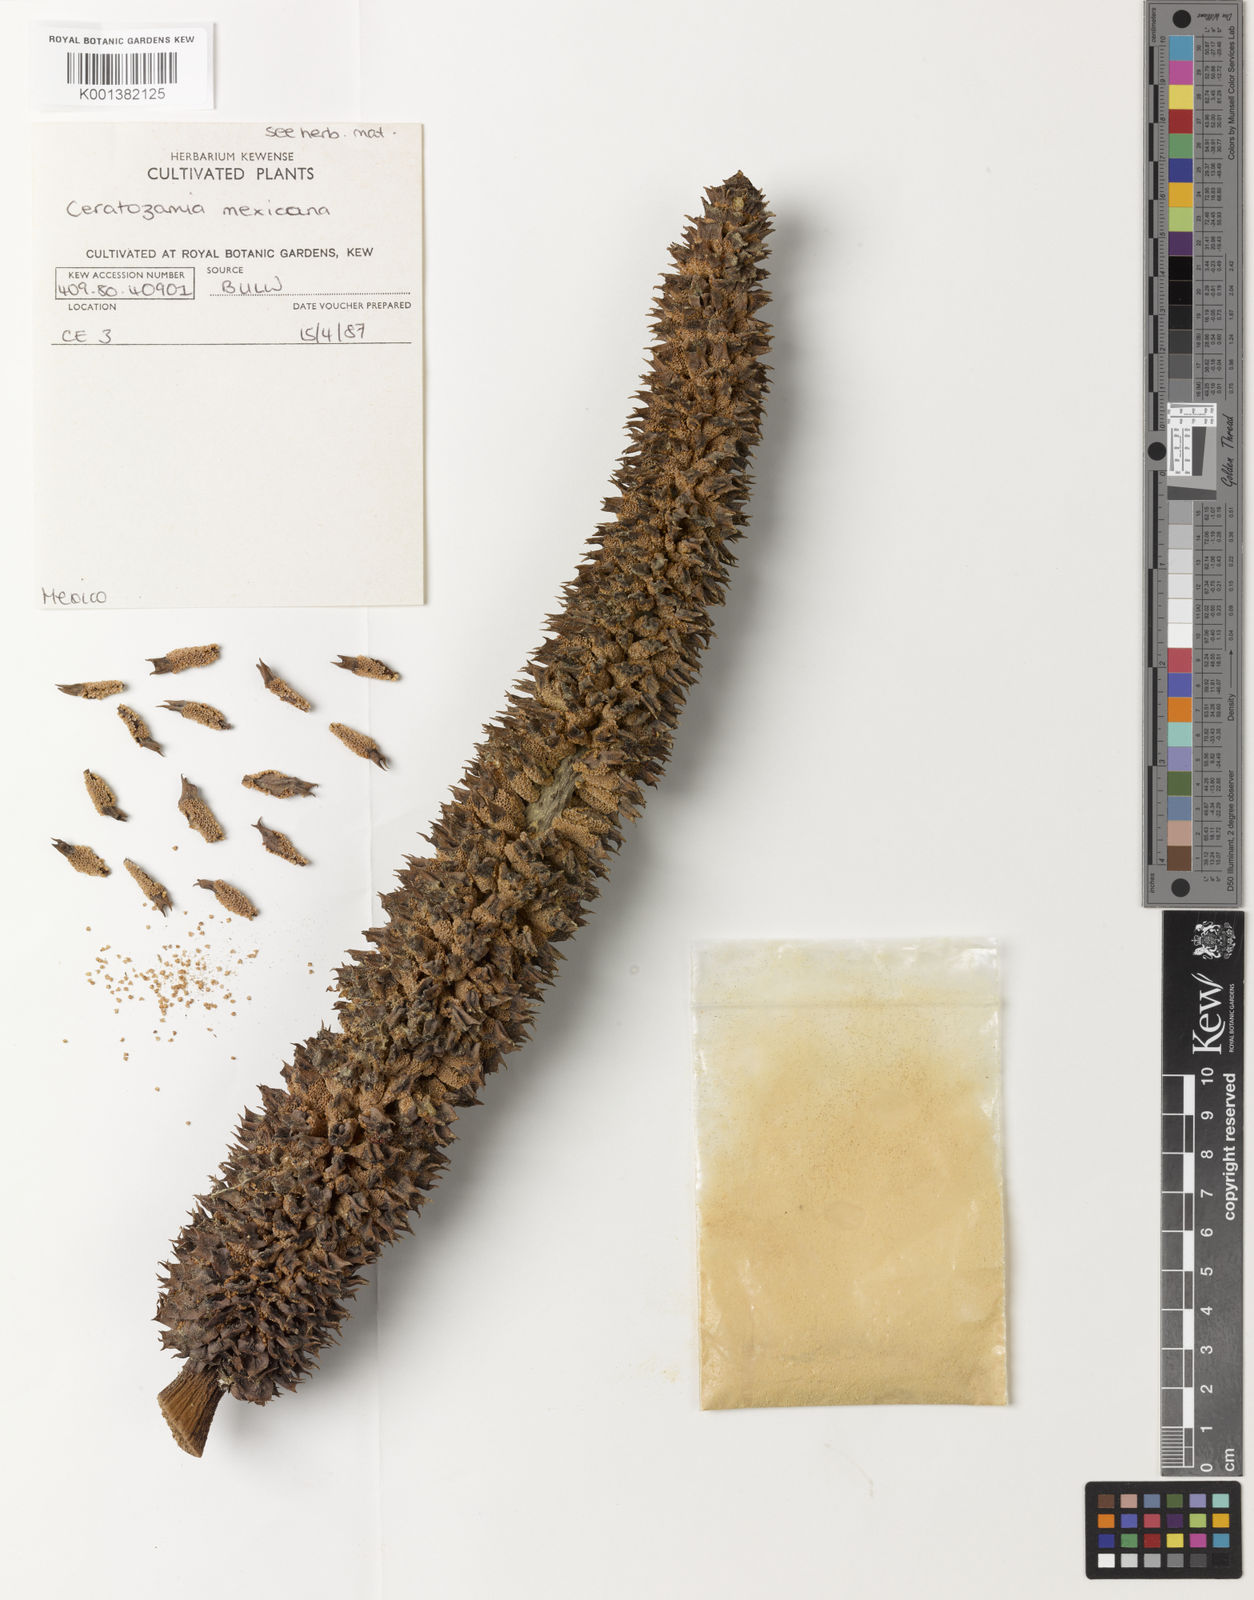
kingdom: Plantae
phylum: Tracheophyta
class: Cycadopsida
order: Cycadales
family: Zamiaceae
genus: Ceratozamia
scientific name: Ceratozamia mexicana
